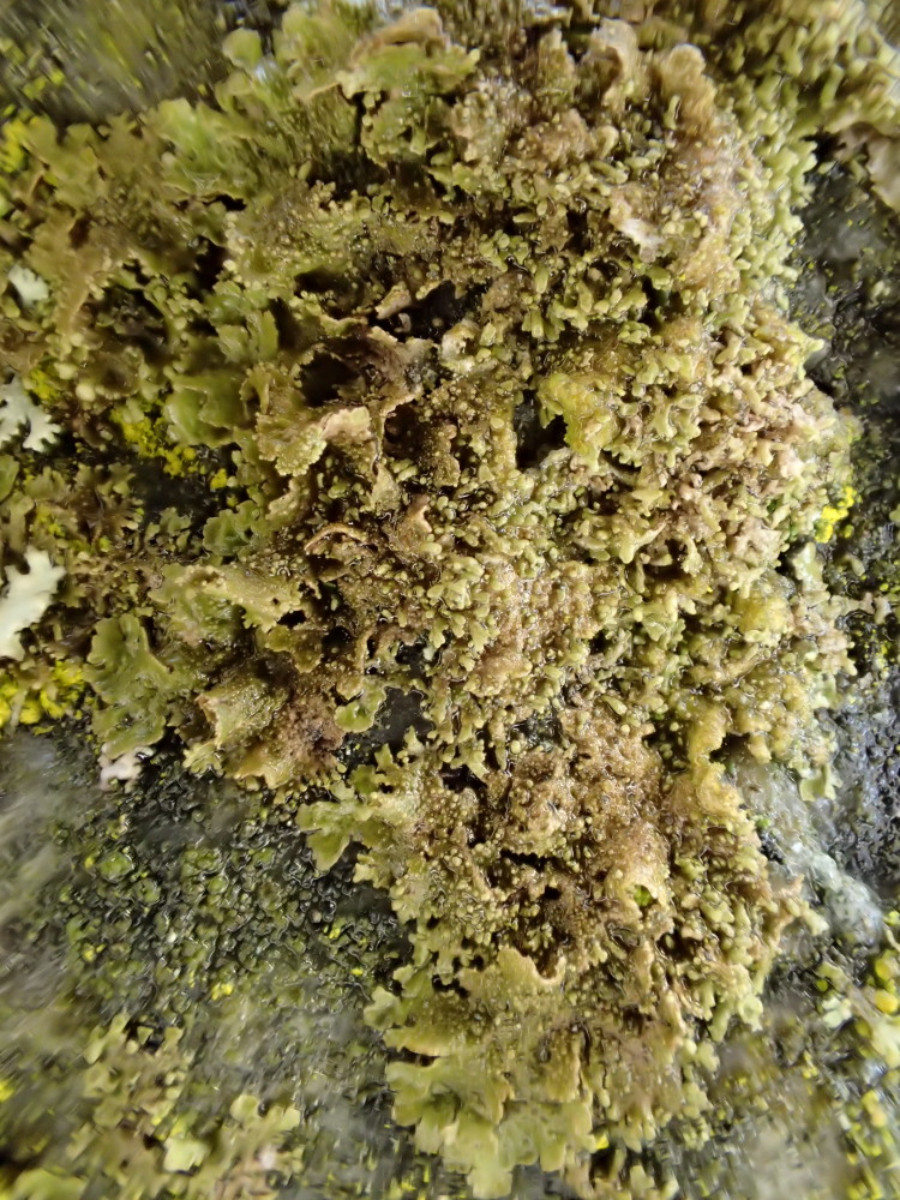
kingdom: Fungi
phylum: Ascomycota
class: Lecanoromycetes
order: Lecanorales
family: Parmeliaceae
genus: Melanohalea
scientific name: Melanohalea exasperatula
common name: kølle-skållav
